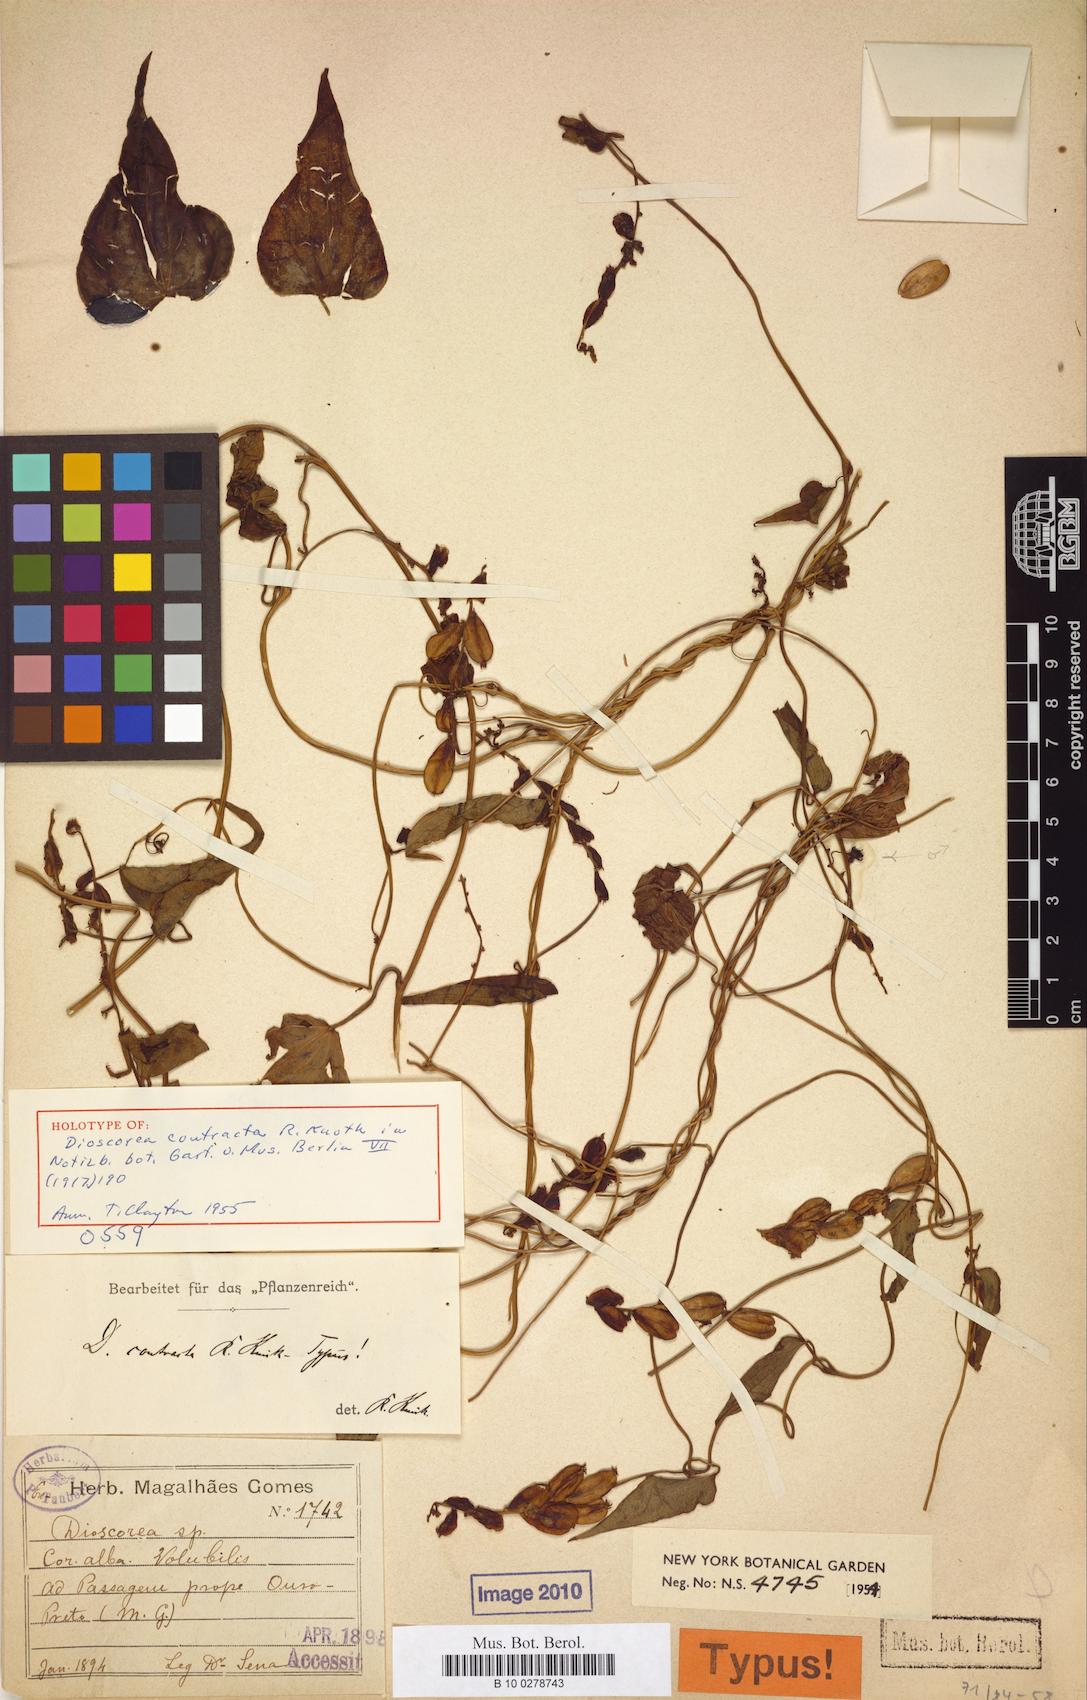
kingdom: Plantae
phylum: Tracheophyta
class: Liliopsida
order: Dioscoreales
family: Dioscoreaceae
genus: Dioscorea
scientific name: Dioscorea contracta
